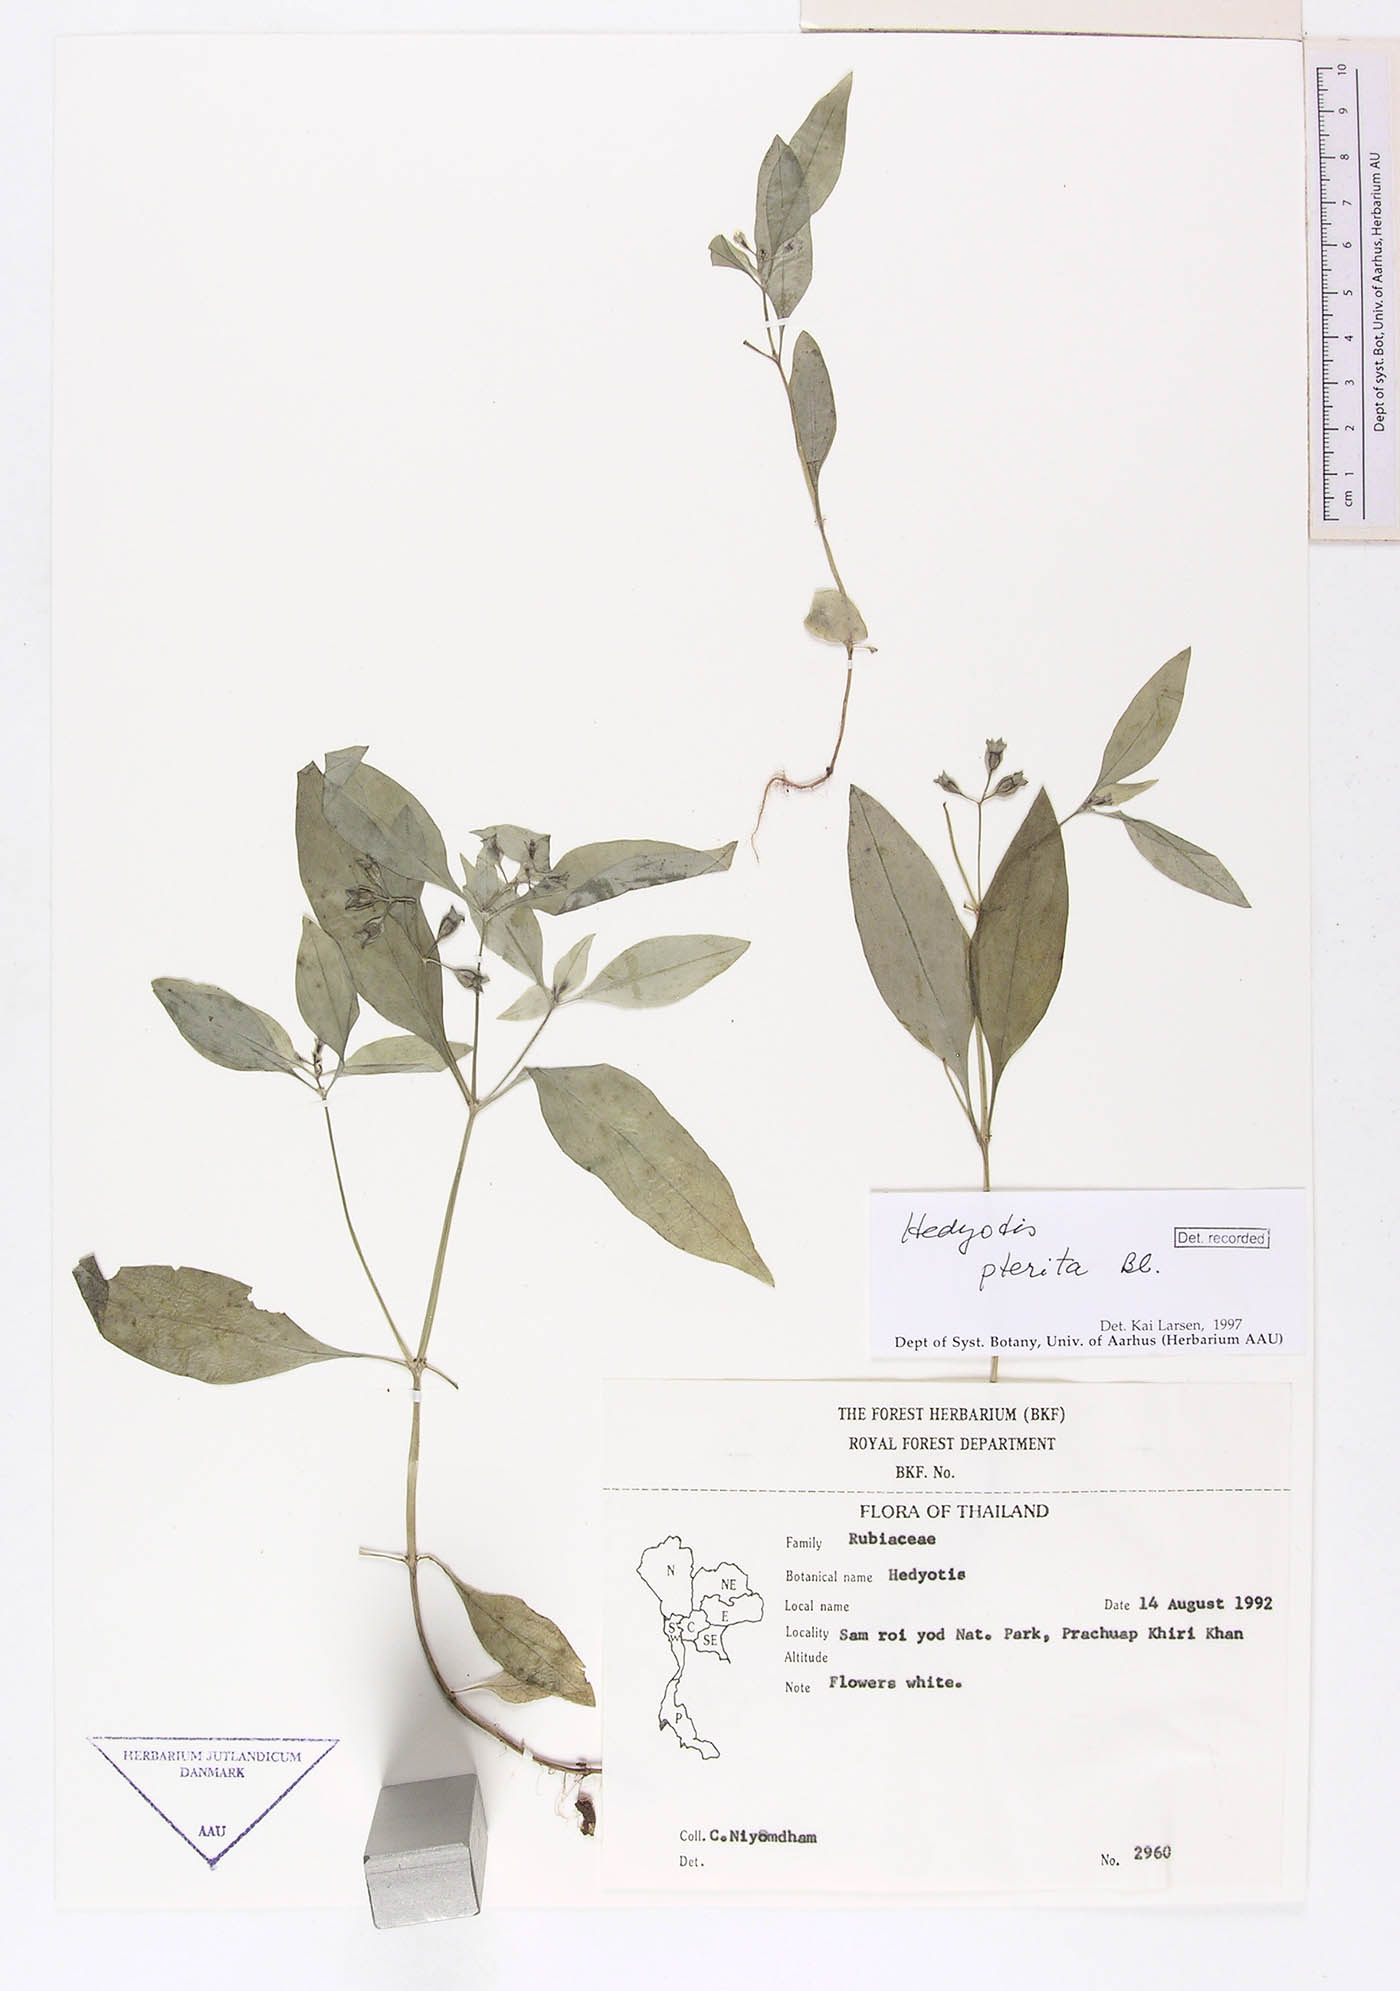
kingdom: Plantae
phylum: Tracheophyta
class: Magnoliopsida
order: Gentianales
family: Rubiaceae
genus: Leptopetalum
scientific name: Leptopetalum pteritum
